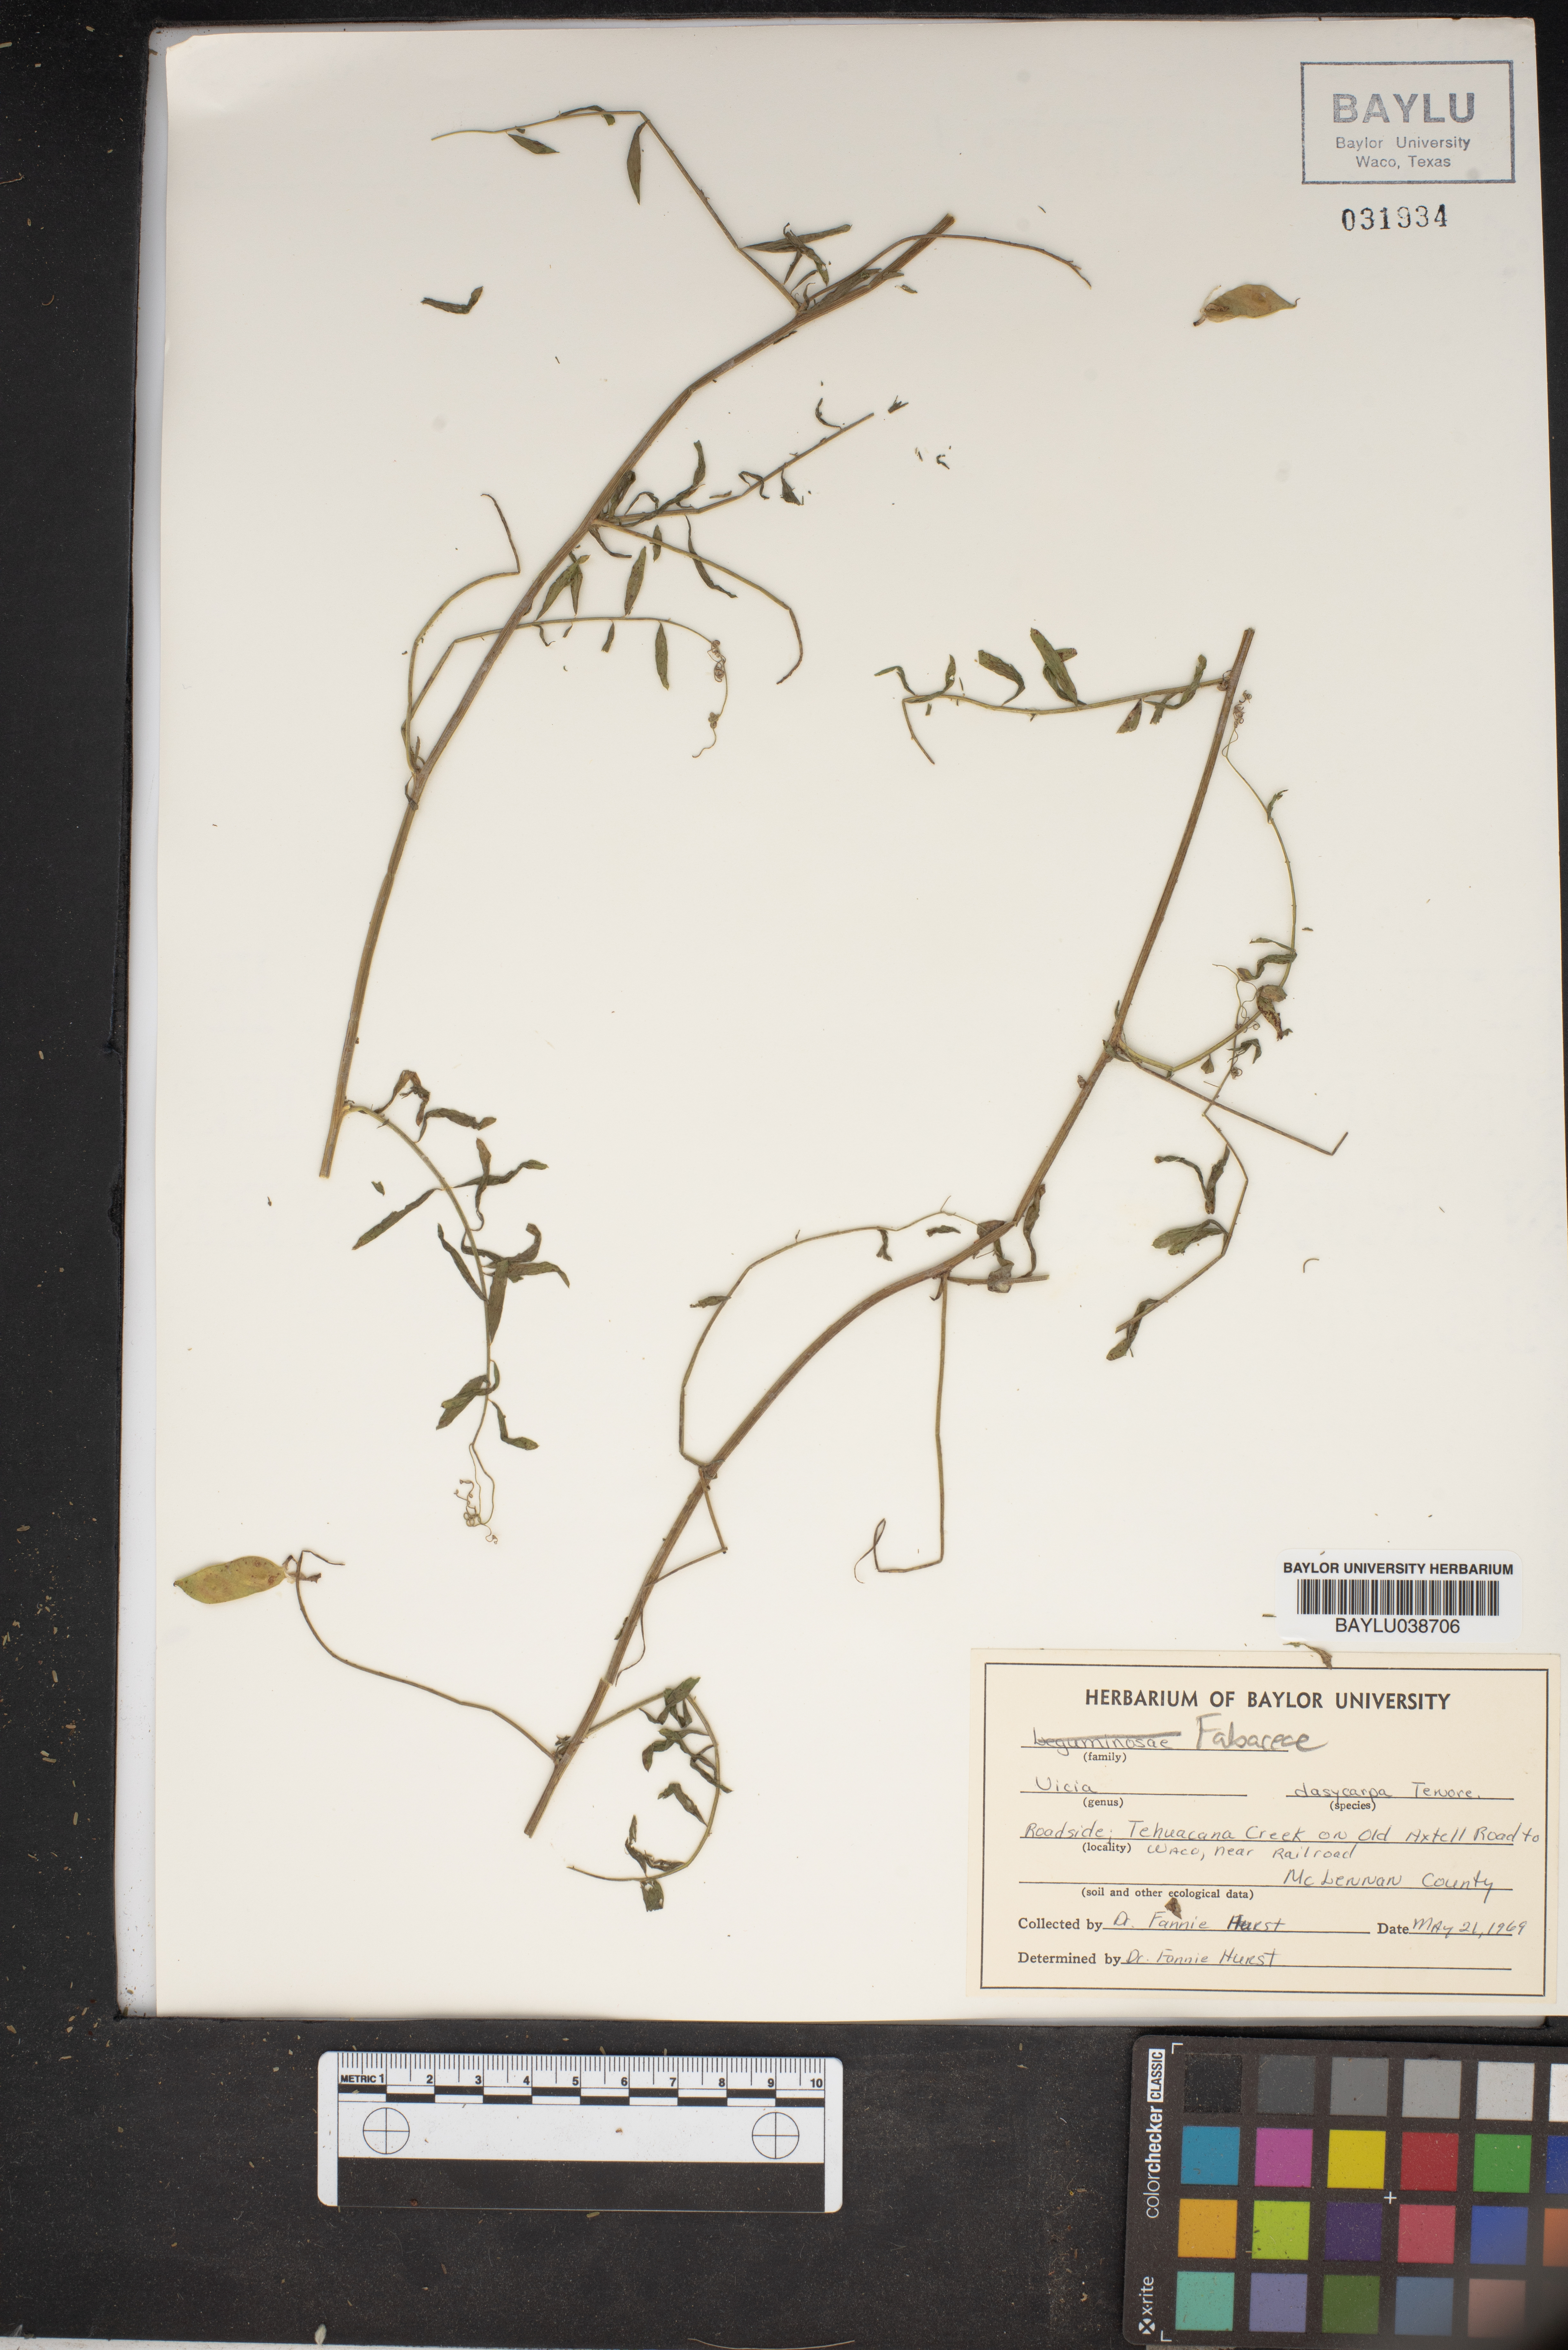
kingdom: Plantae
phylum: Tracheophyta
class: Magnoliopsida
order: Fabales
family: Fabaceae
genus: Vicia
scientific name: Vicia villosa
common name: Fodder vetch
